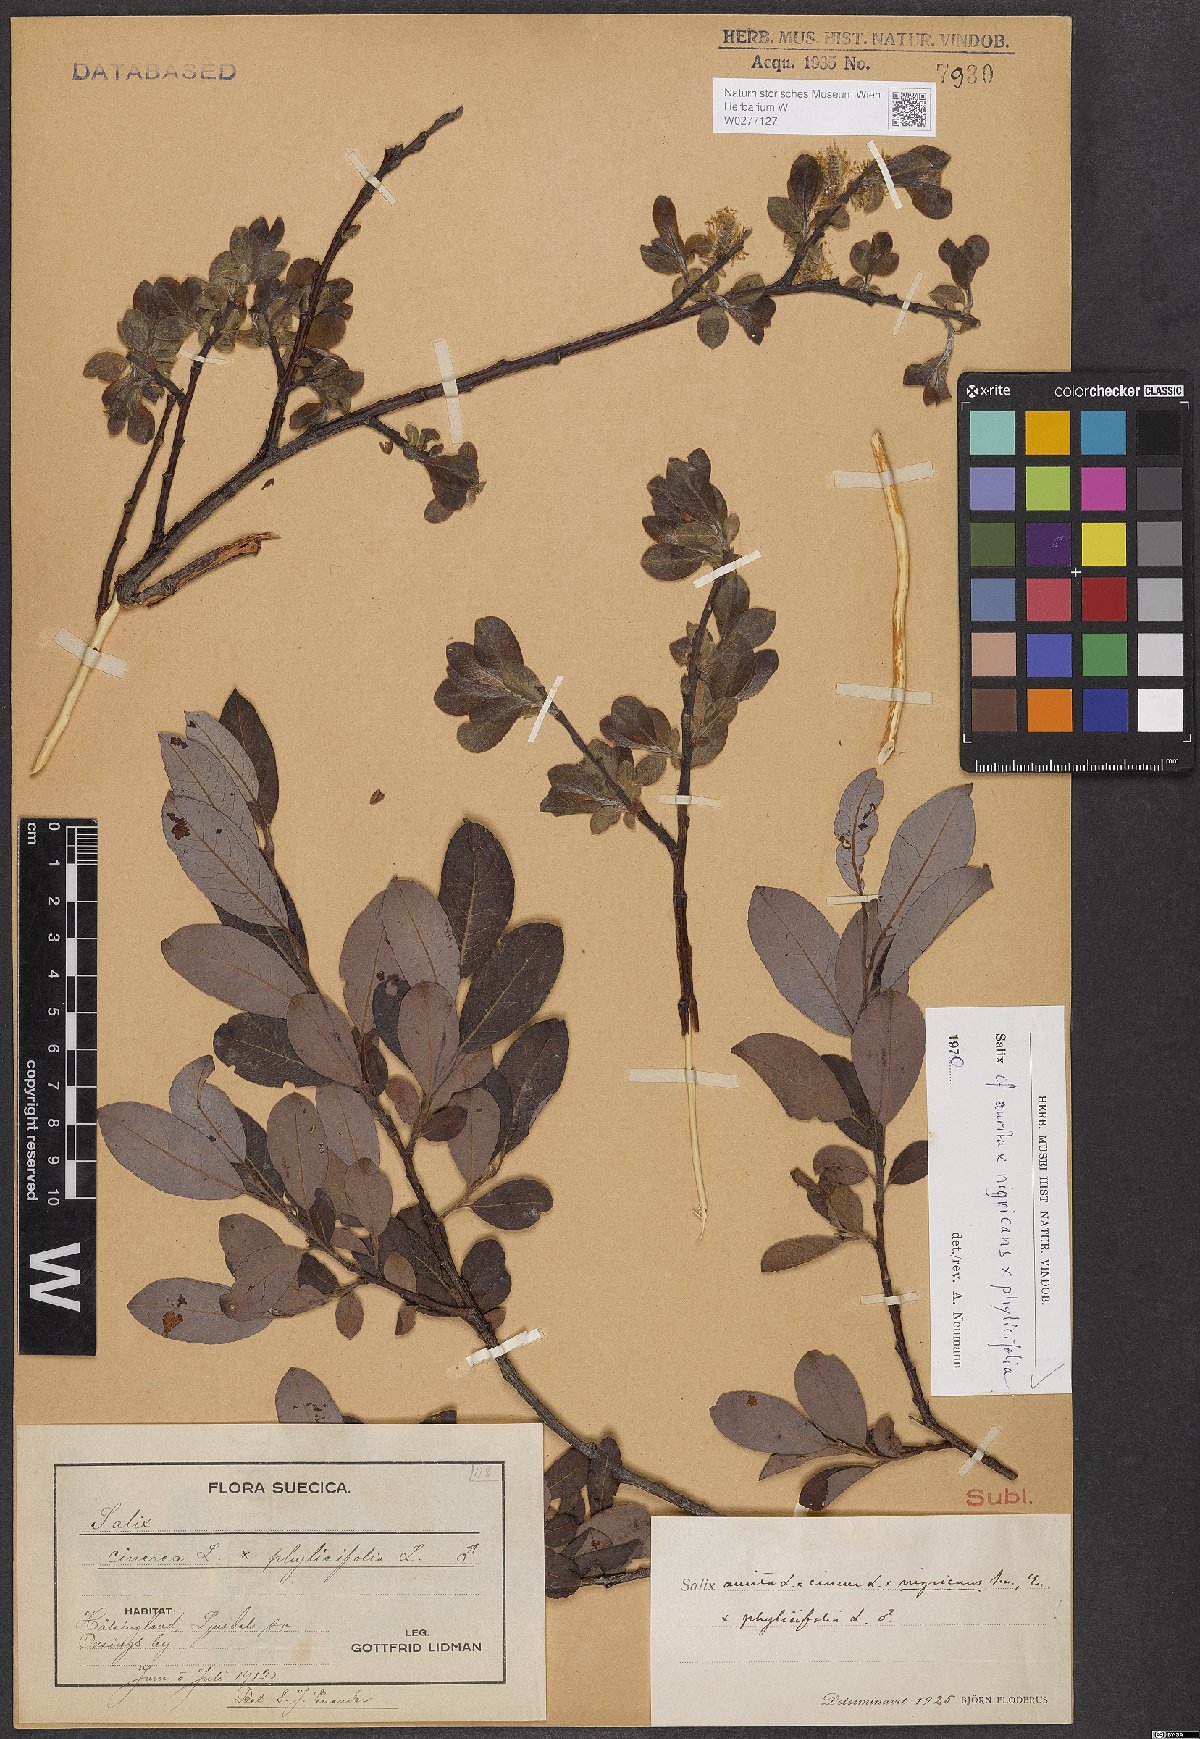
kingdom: Plantae
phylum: Tracheophyta
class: Magnoliopsida
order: Malpighiales
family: Salicaceae
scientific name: Salicaceae
